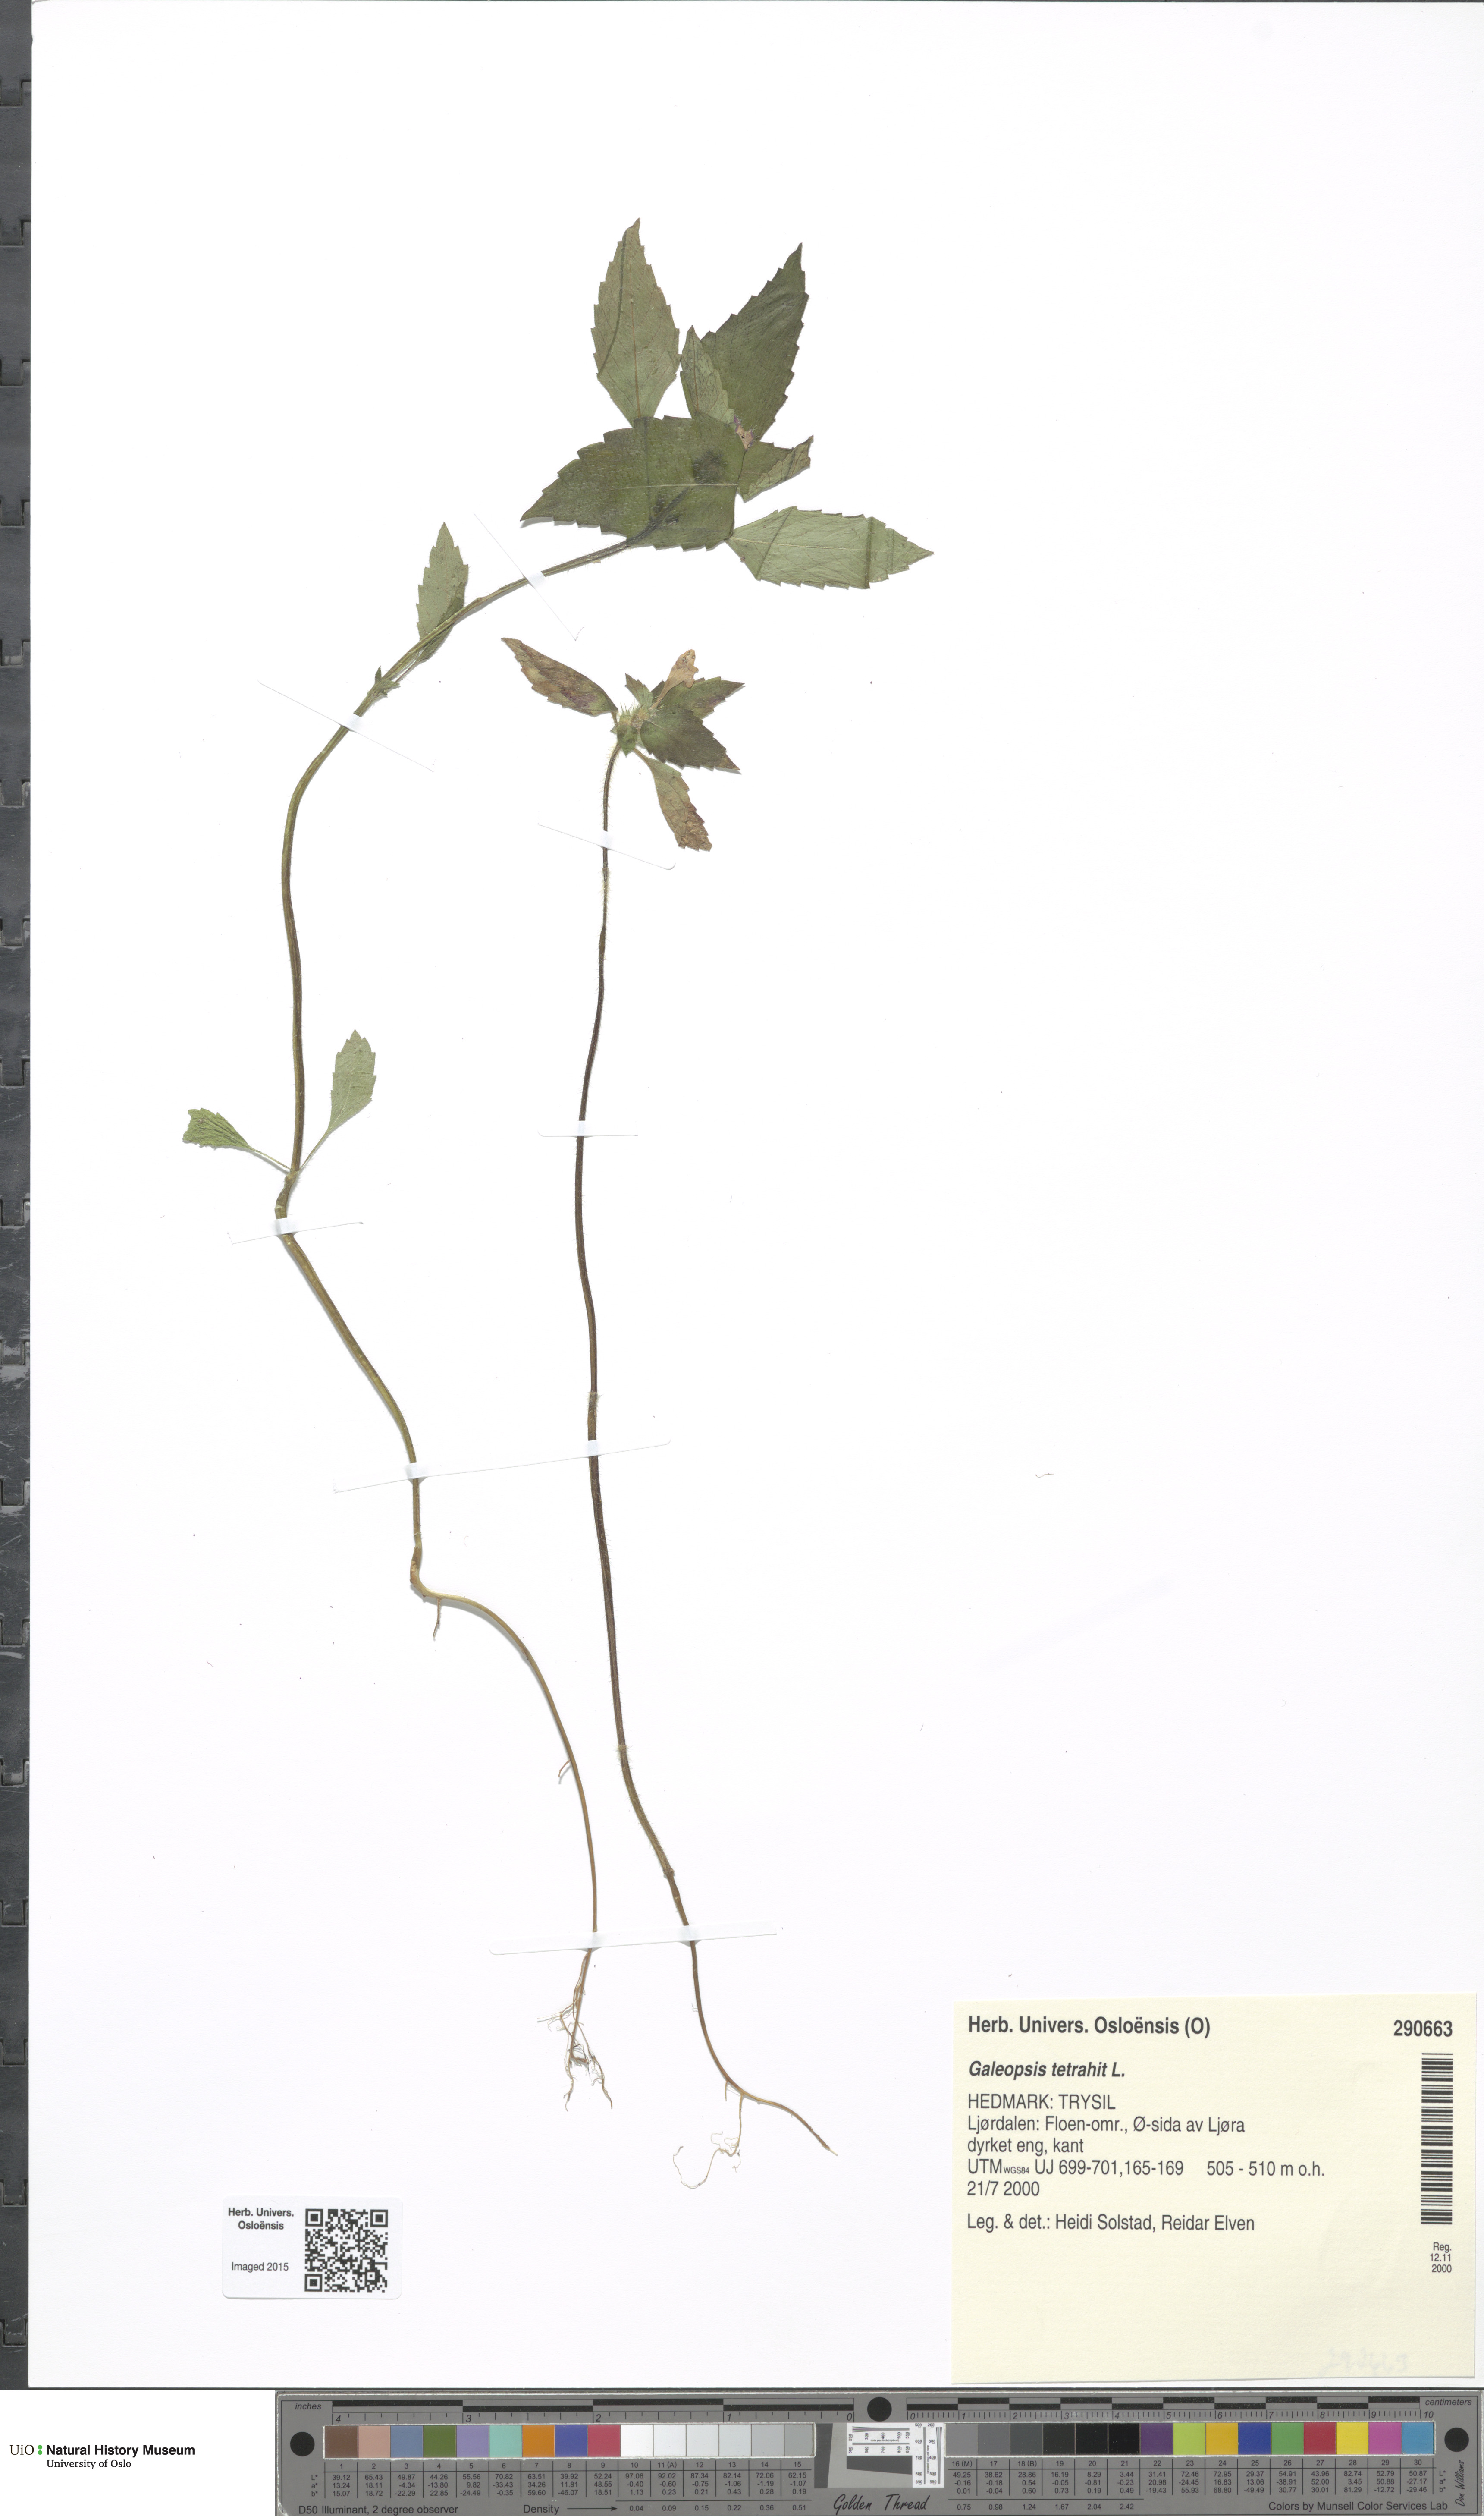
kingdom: Plantae
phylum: Tracheophyta
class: Magnoliopsida
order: Lamiales
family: Lamiaceae
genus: Galeopsis
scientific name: Galeopsis tetrahit
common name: Common hemp-nettle
